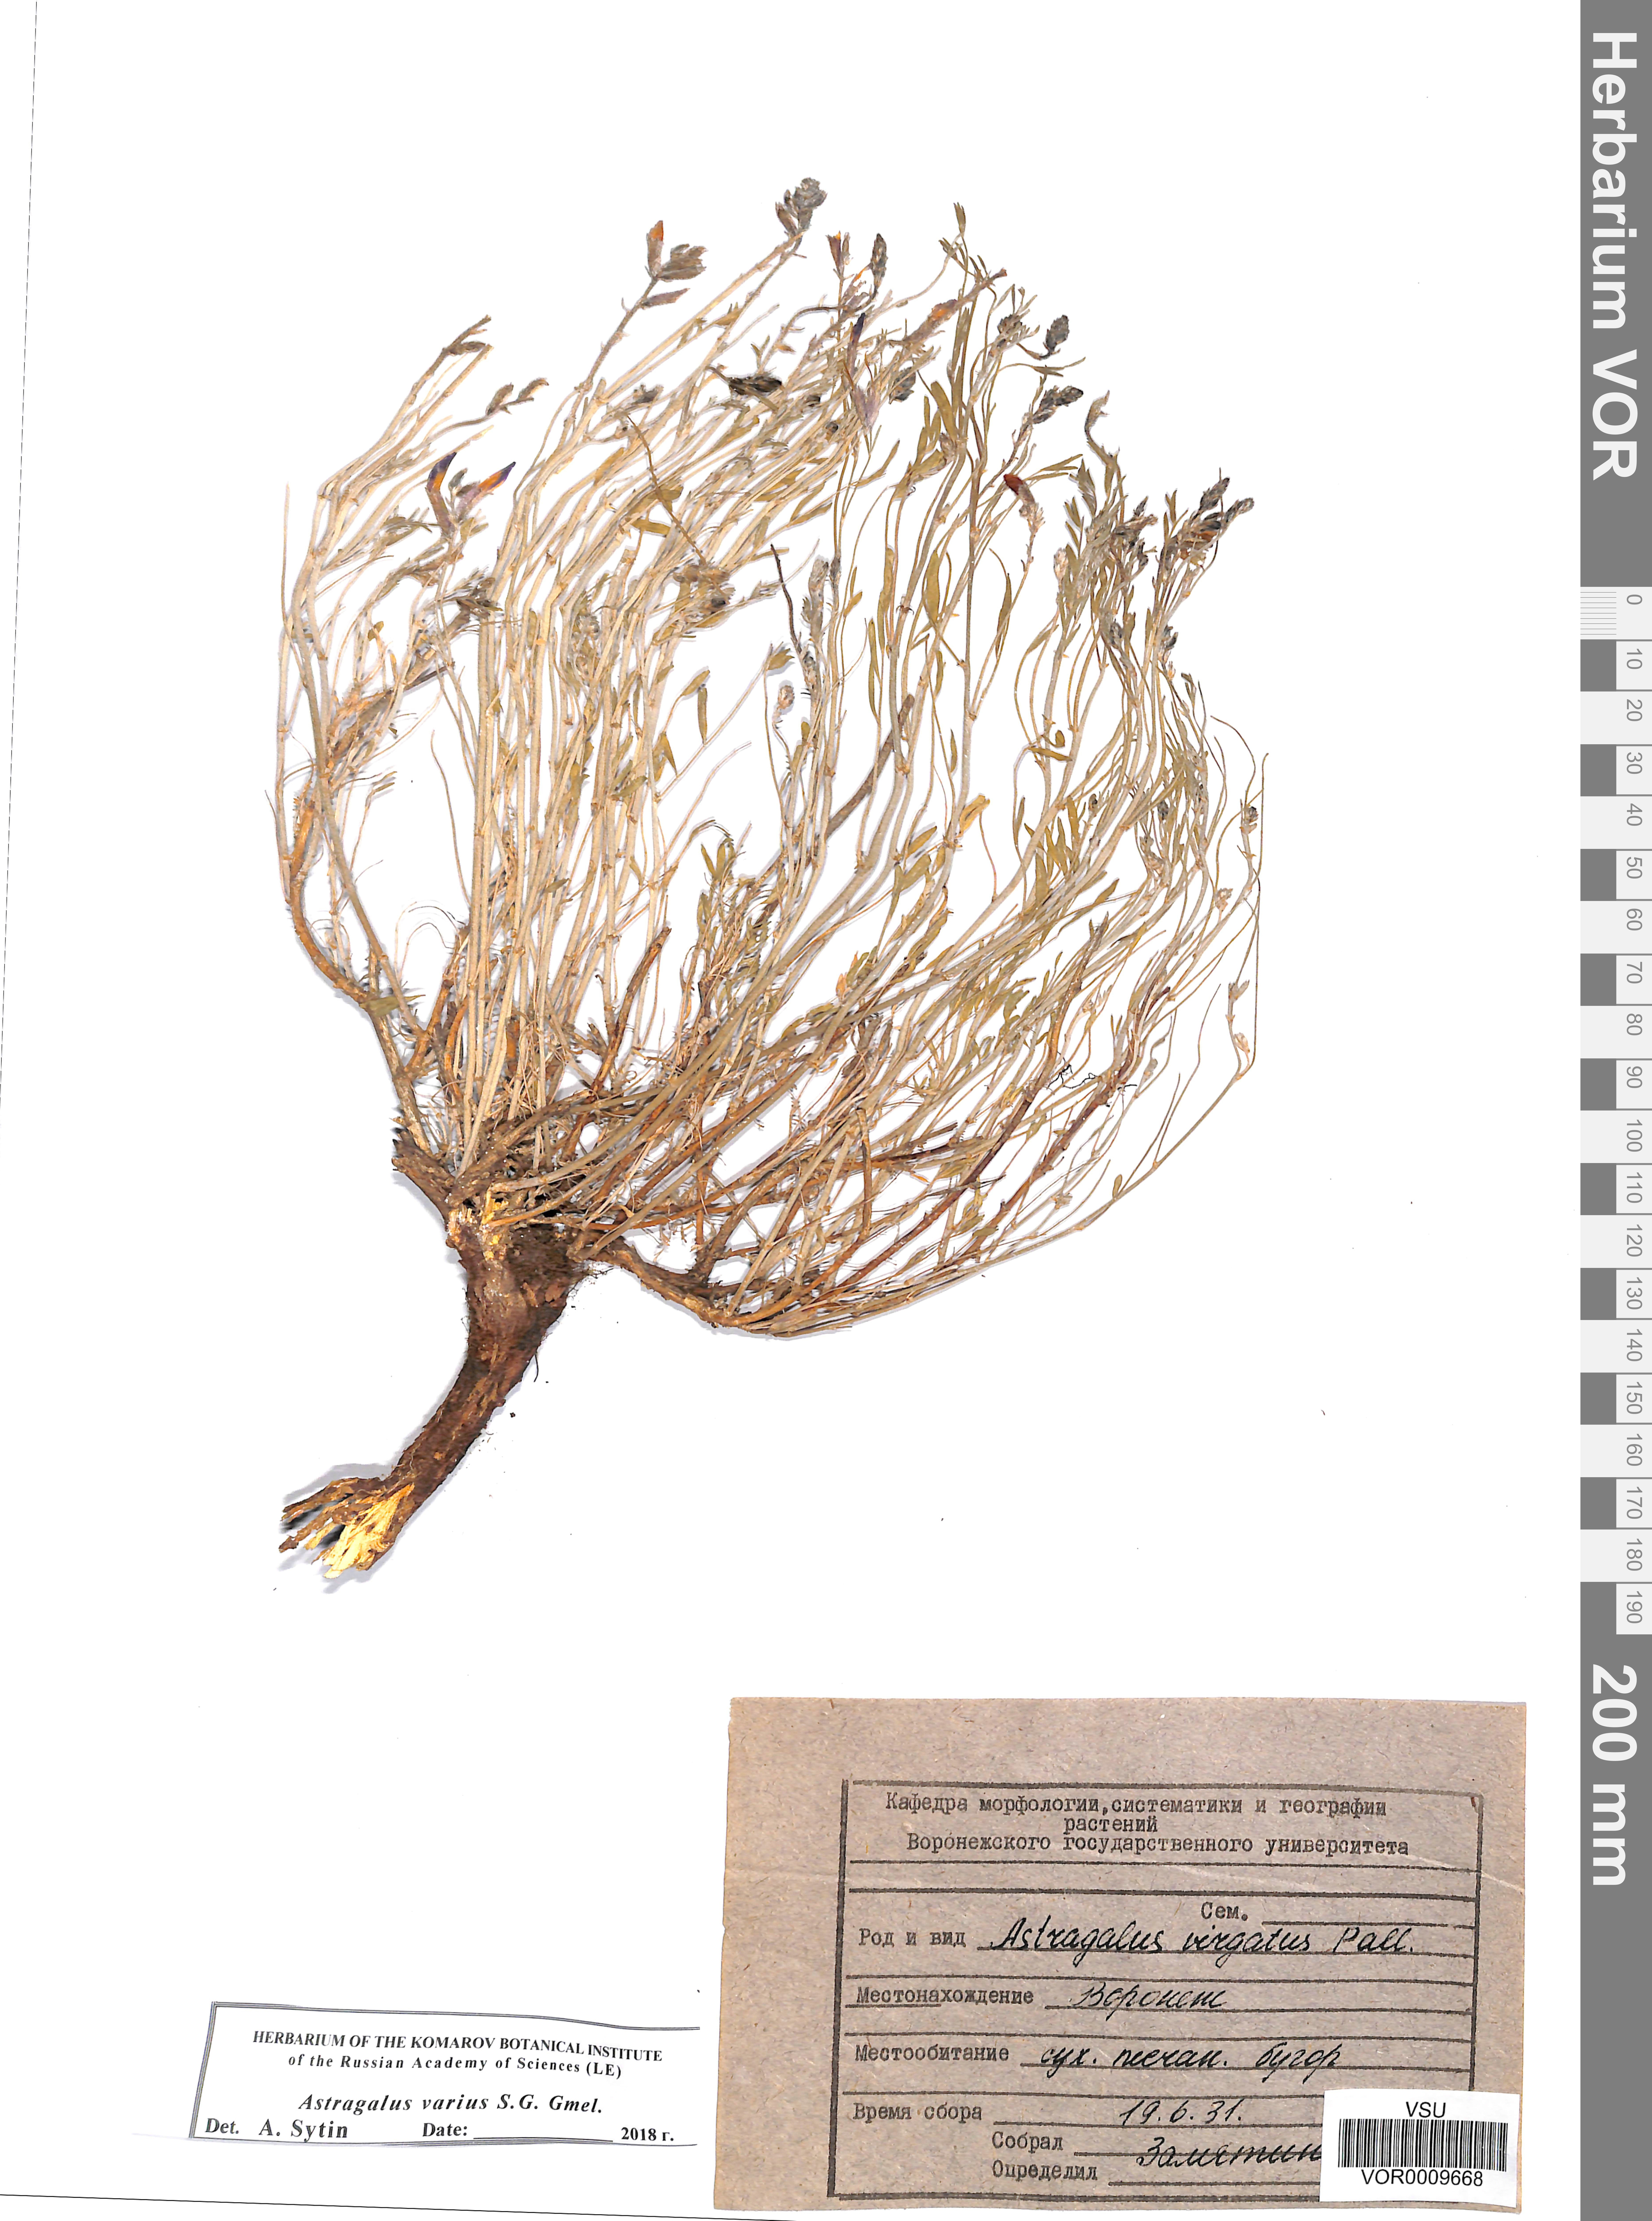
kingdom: Plantae
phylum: Tracheophyta
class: Magnoliopsida
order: Fabales
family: Fabaceae
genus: Astragalus
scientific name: Astragalus varius
